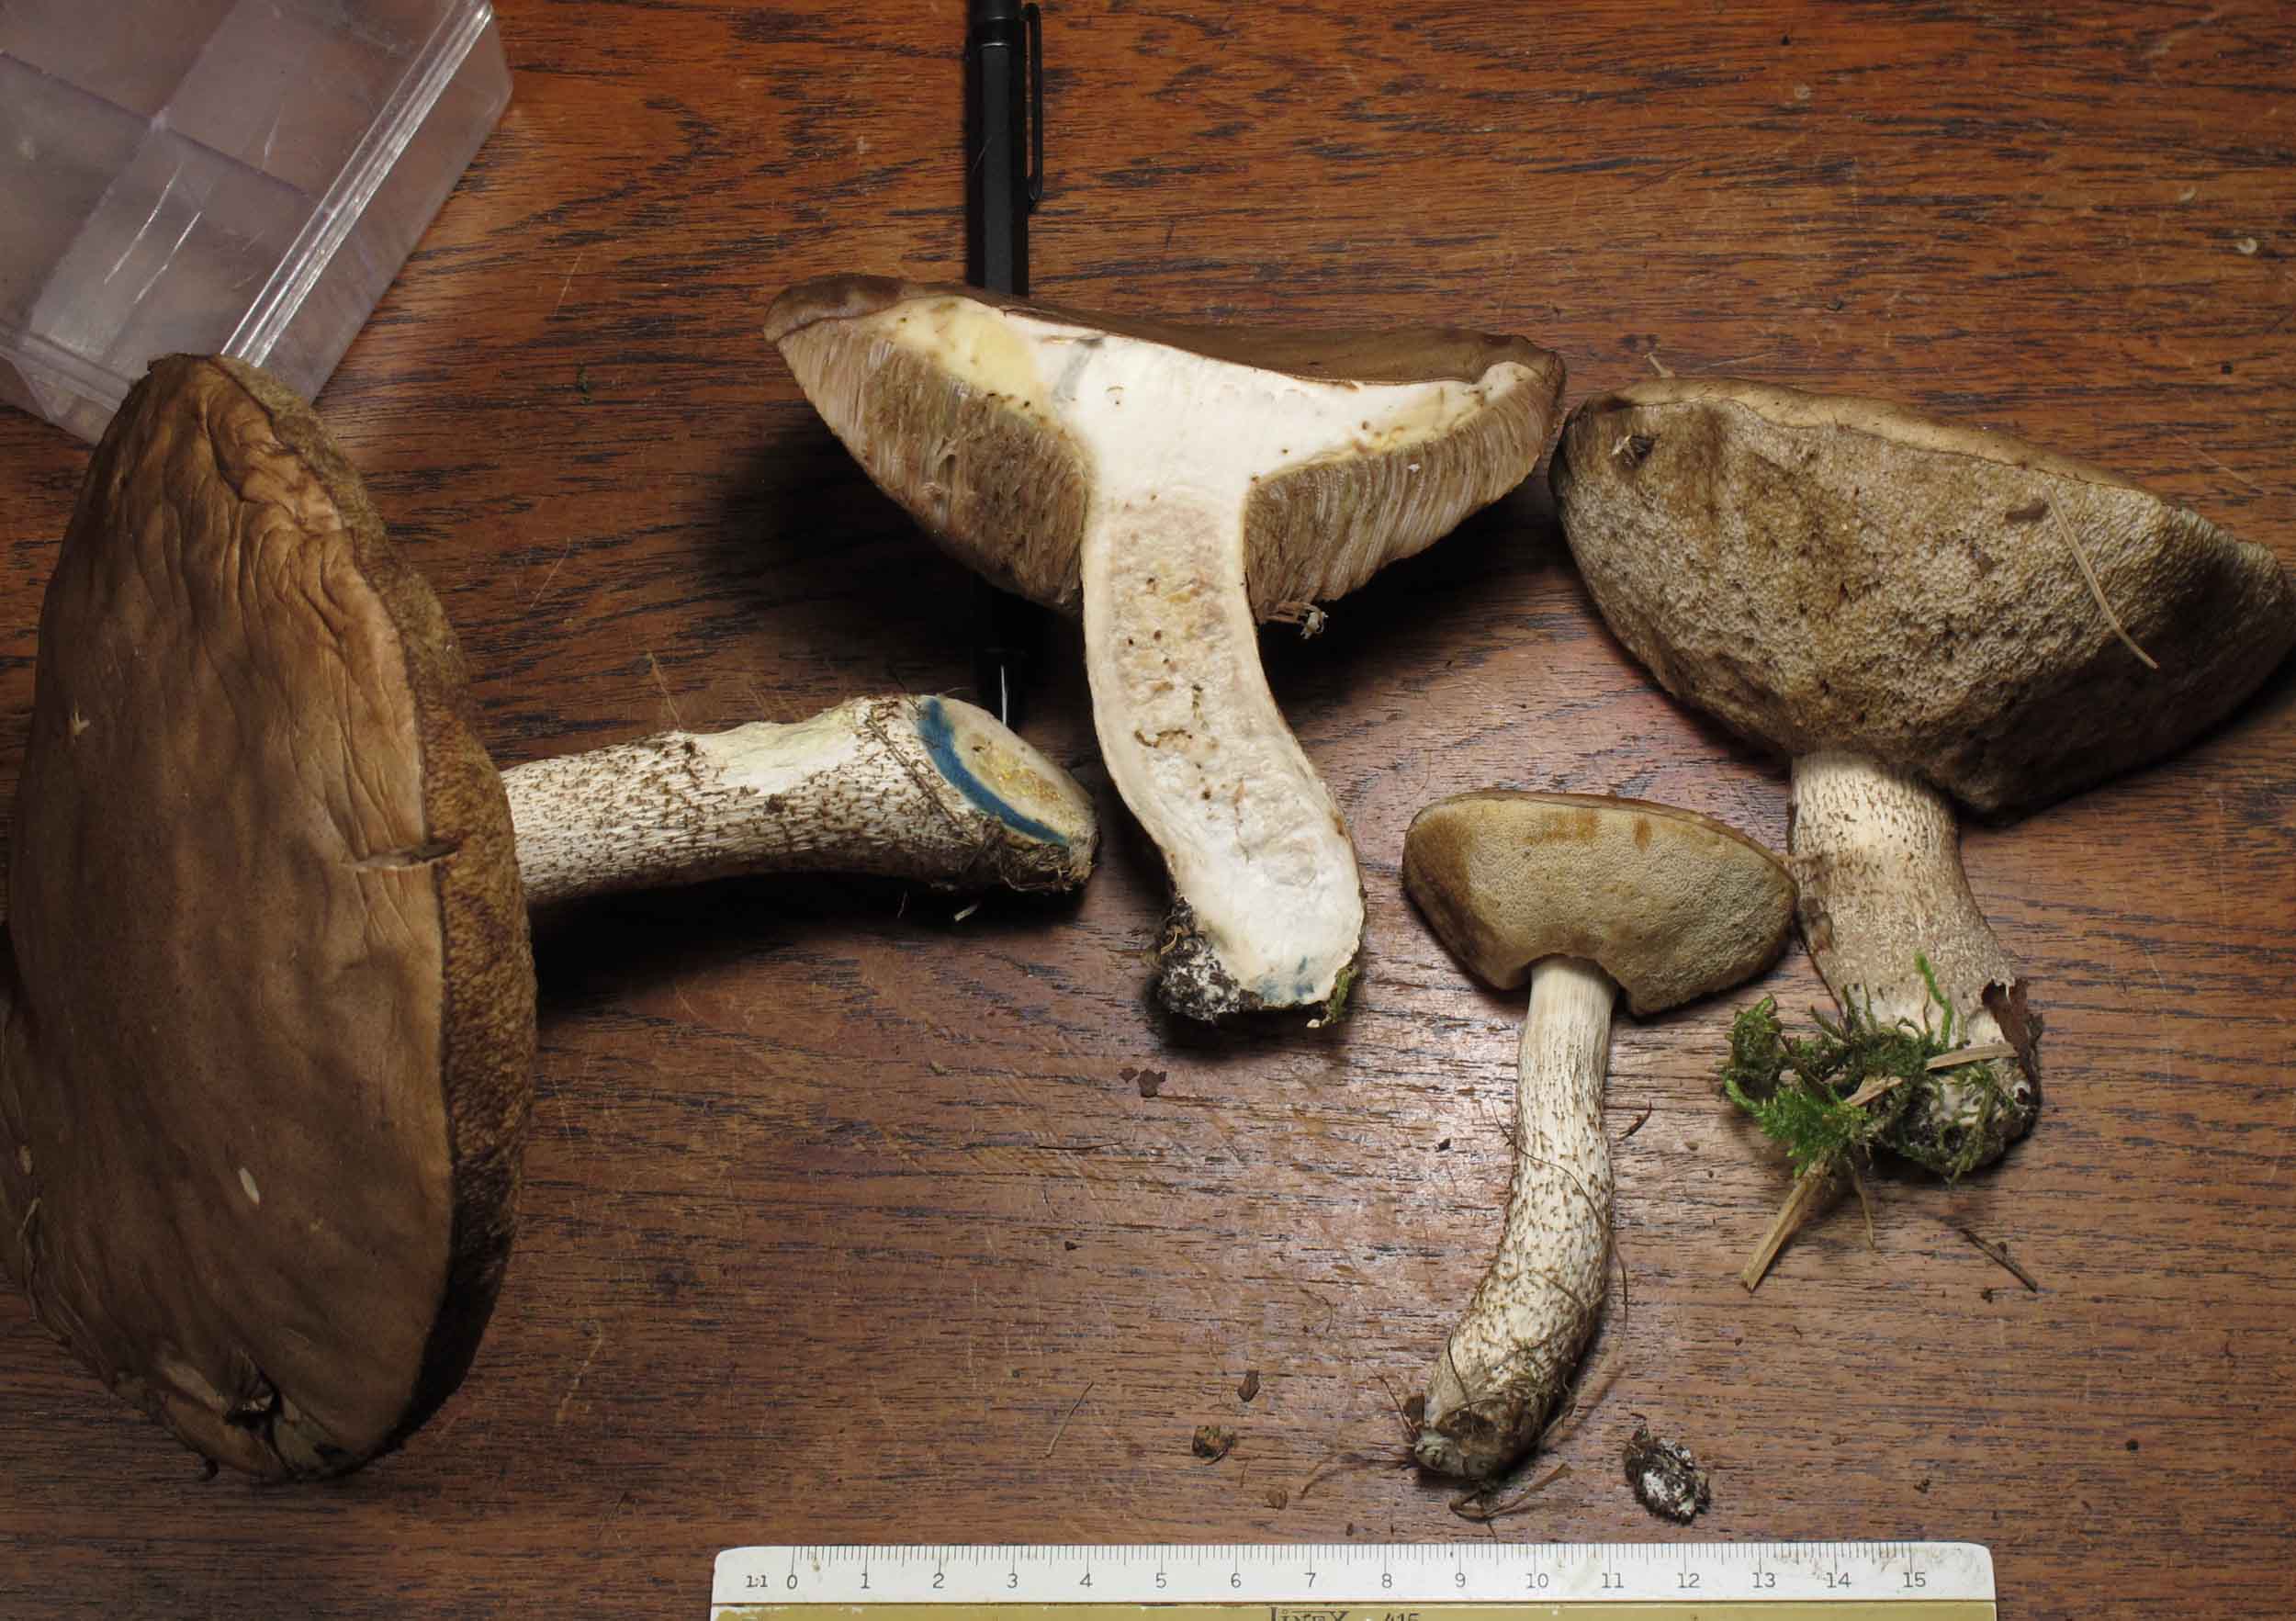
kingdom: Fungi
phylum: Basidiomycota
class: Agaricomycetes
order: Boletales
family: Boletaceae
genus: Leccinum
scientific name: Leccinum cyaneobasileucum
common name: almindelig skælrørhat
